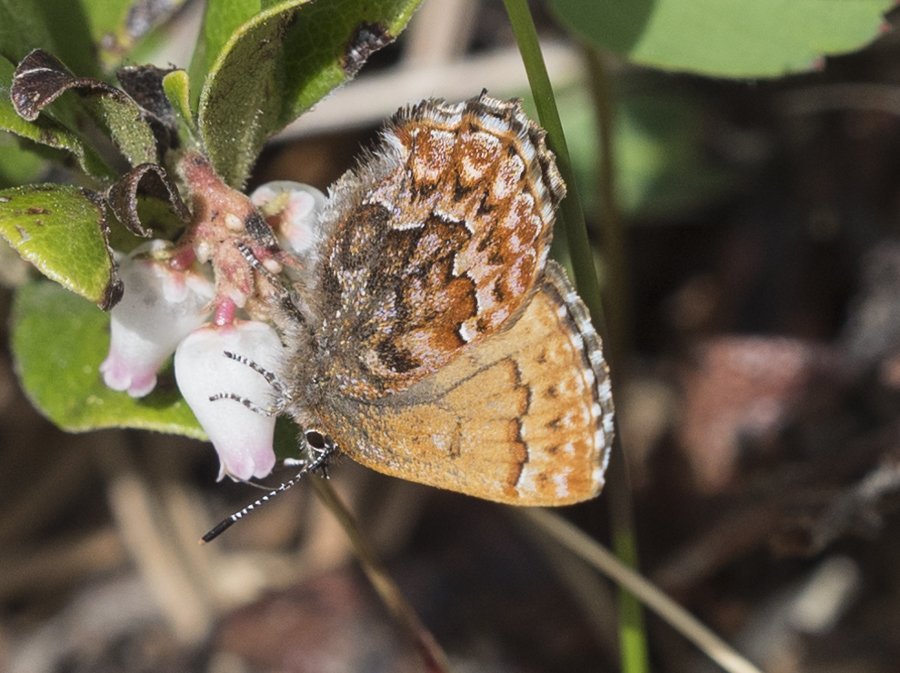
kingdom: Animalia
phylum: Arthropoda
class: Insecta
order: Lepidoptera
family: Lycaenidae
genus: Incisalia
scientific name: Incisalia eryphon
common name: Western Pine Elfin
